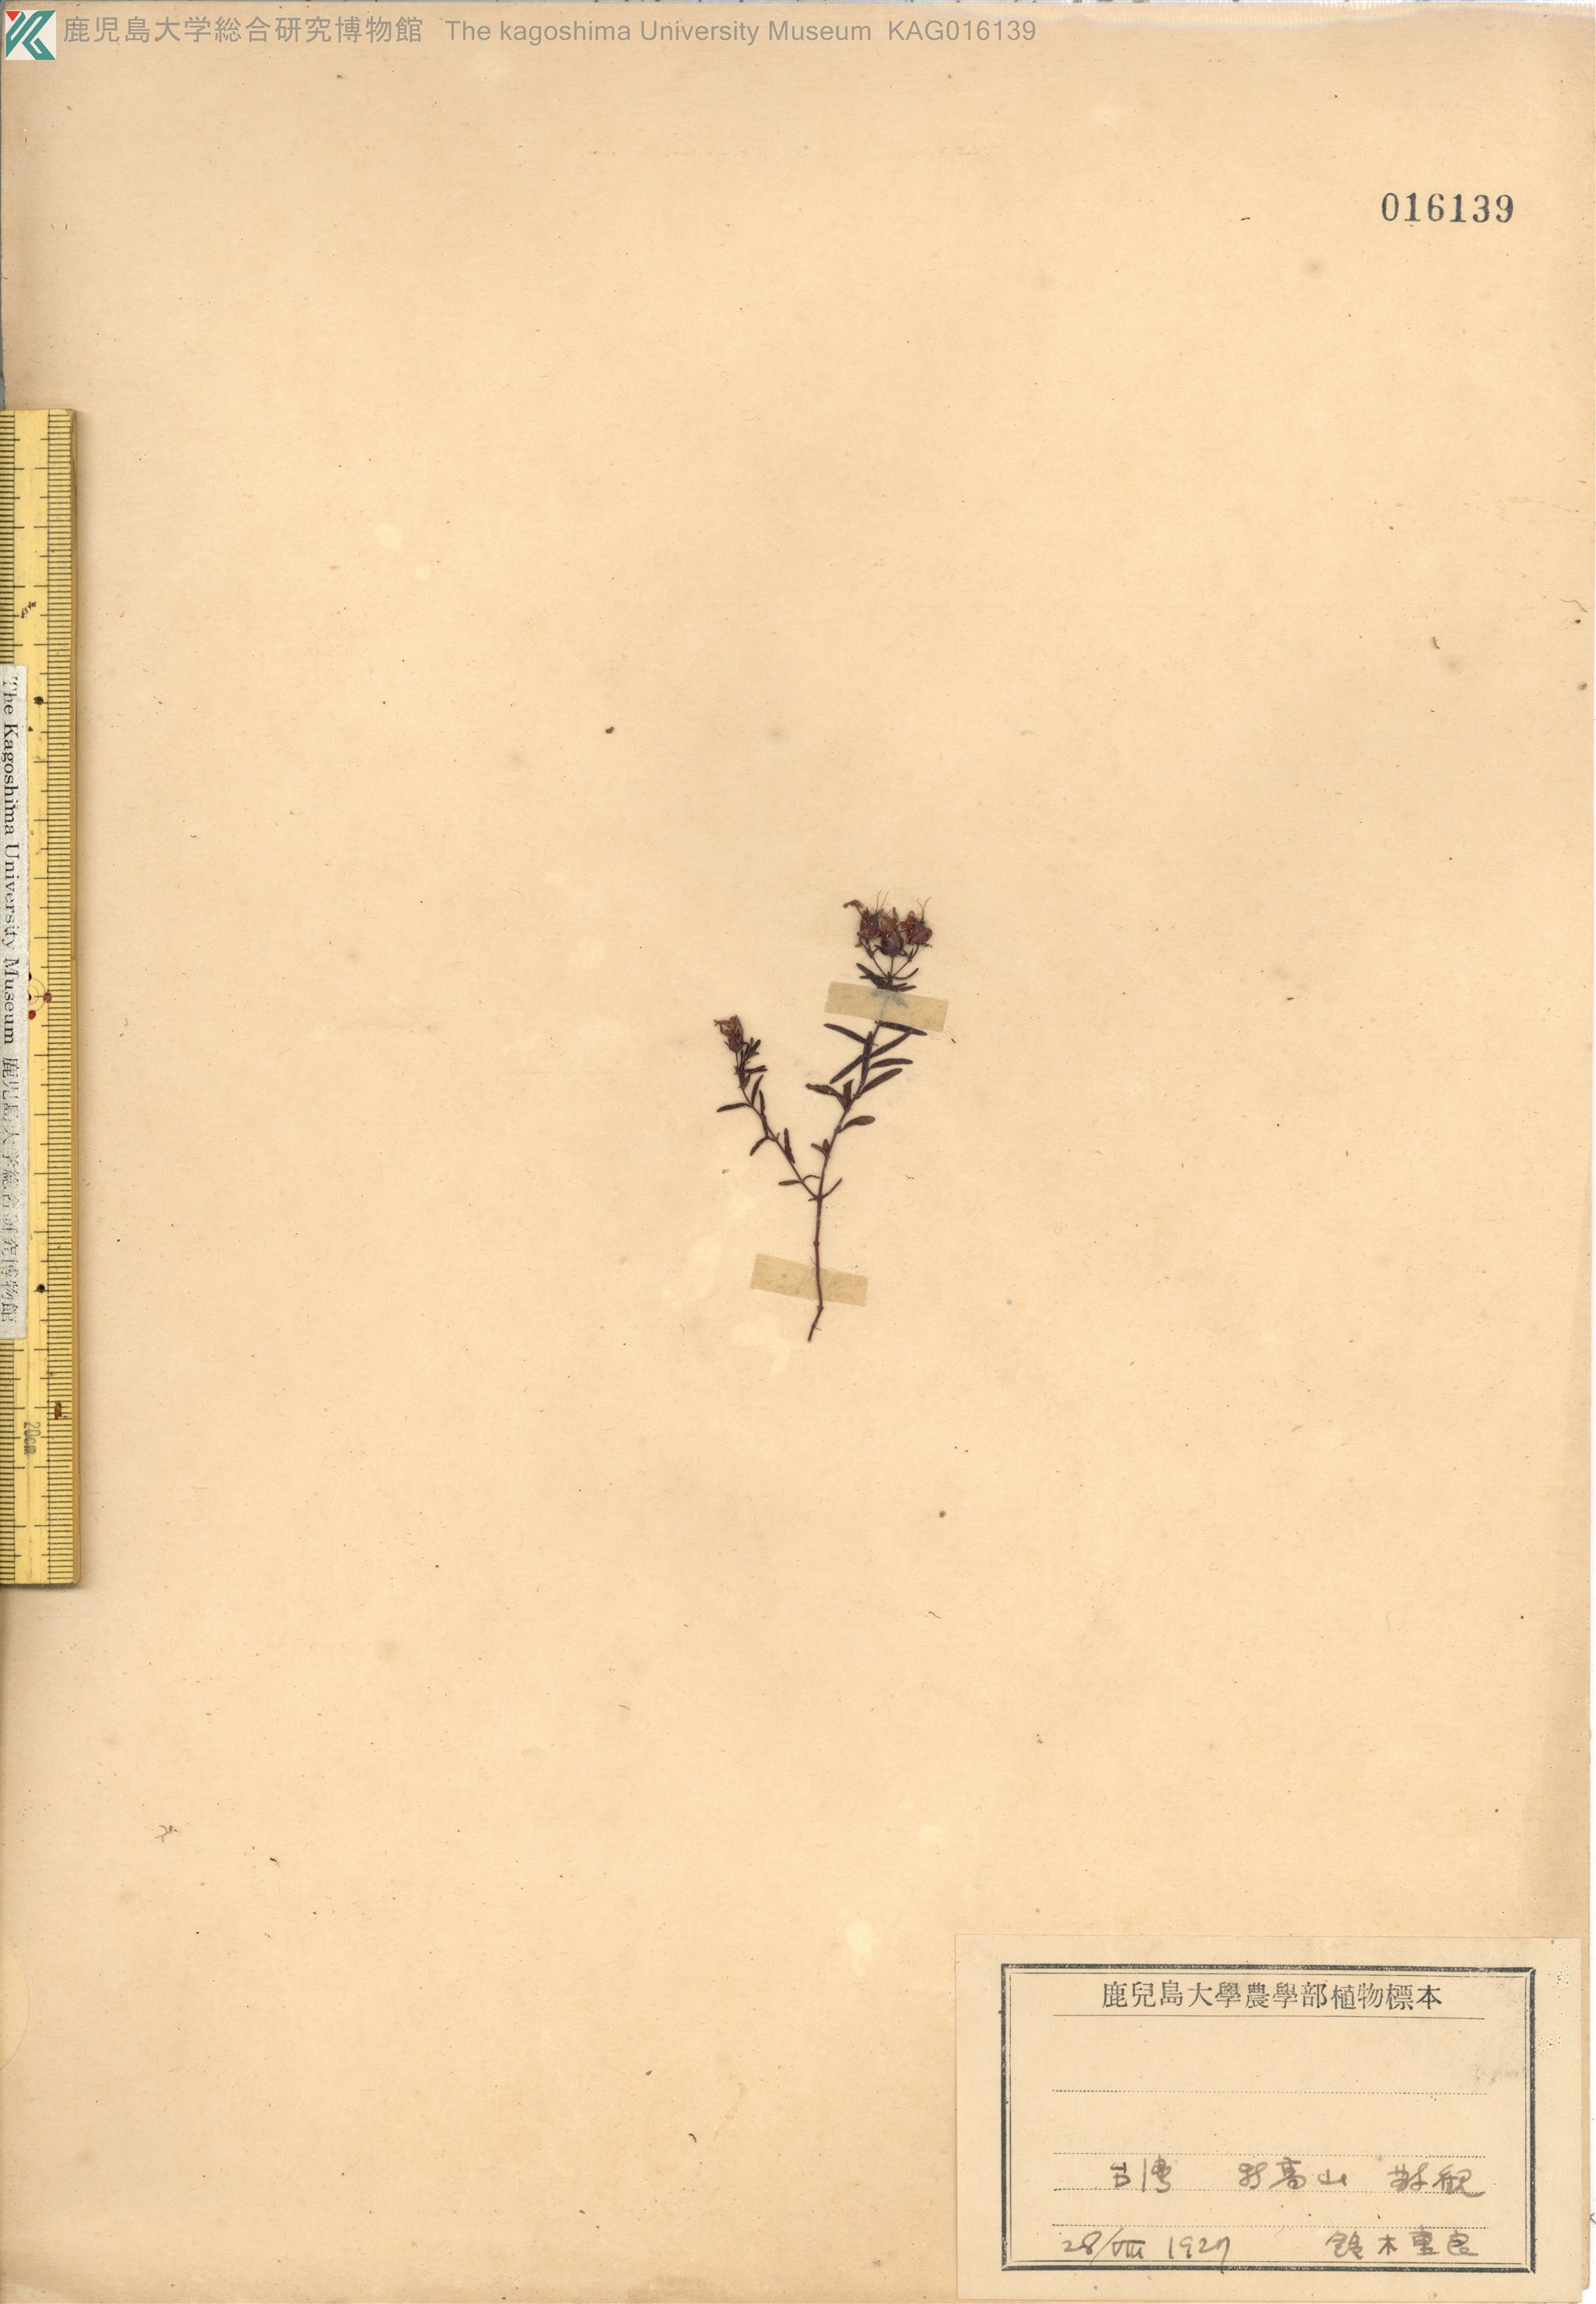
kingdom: Plantae
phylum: Tracheophyta
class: Magnoliopsida
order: Malpighiales
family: Hypericaceae
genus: Hypericum
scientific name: Hypericum nagasawae
